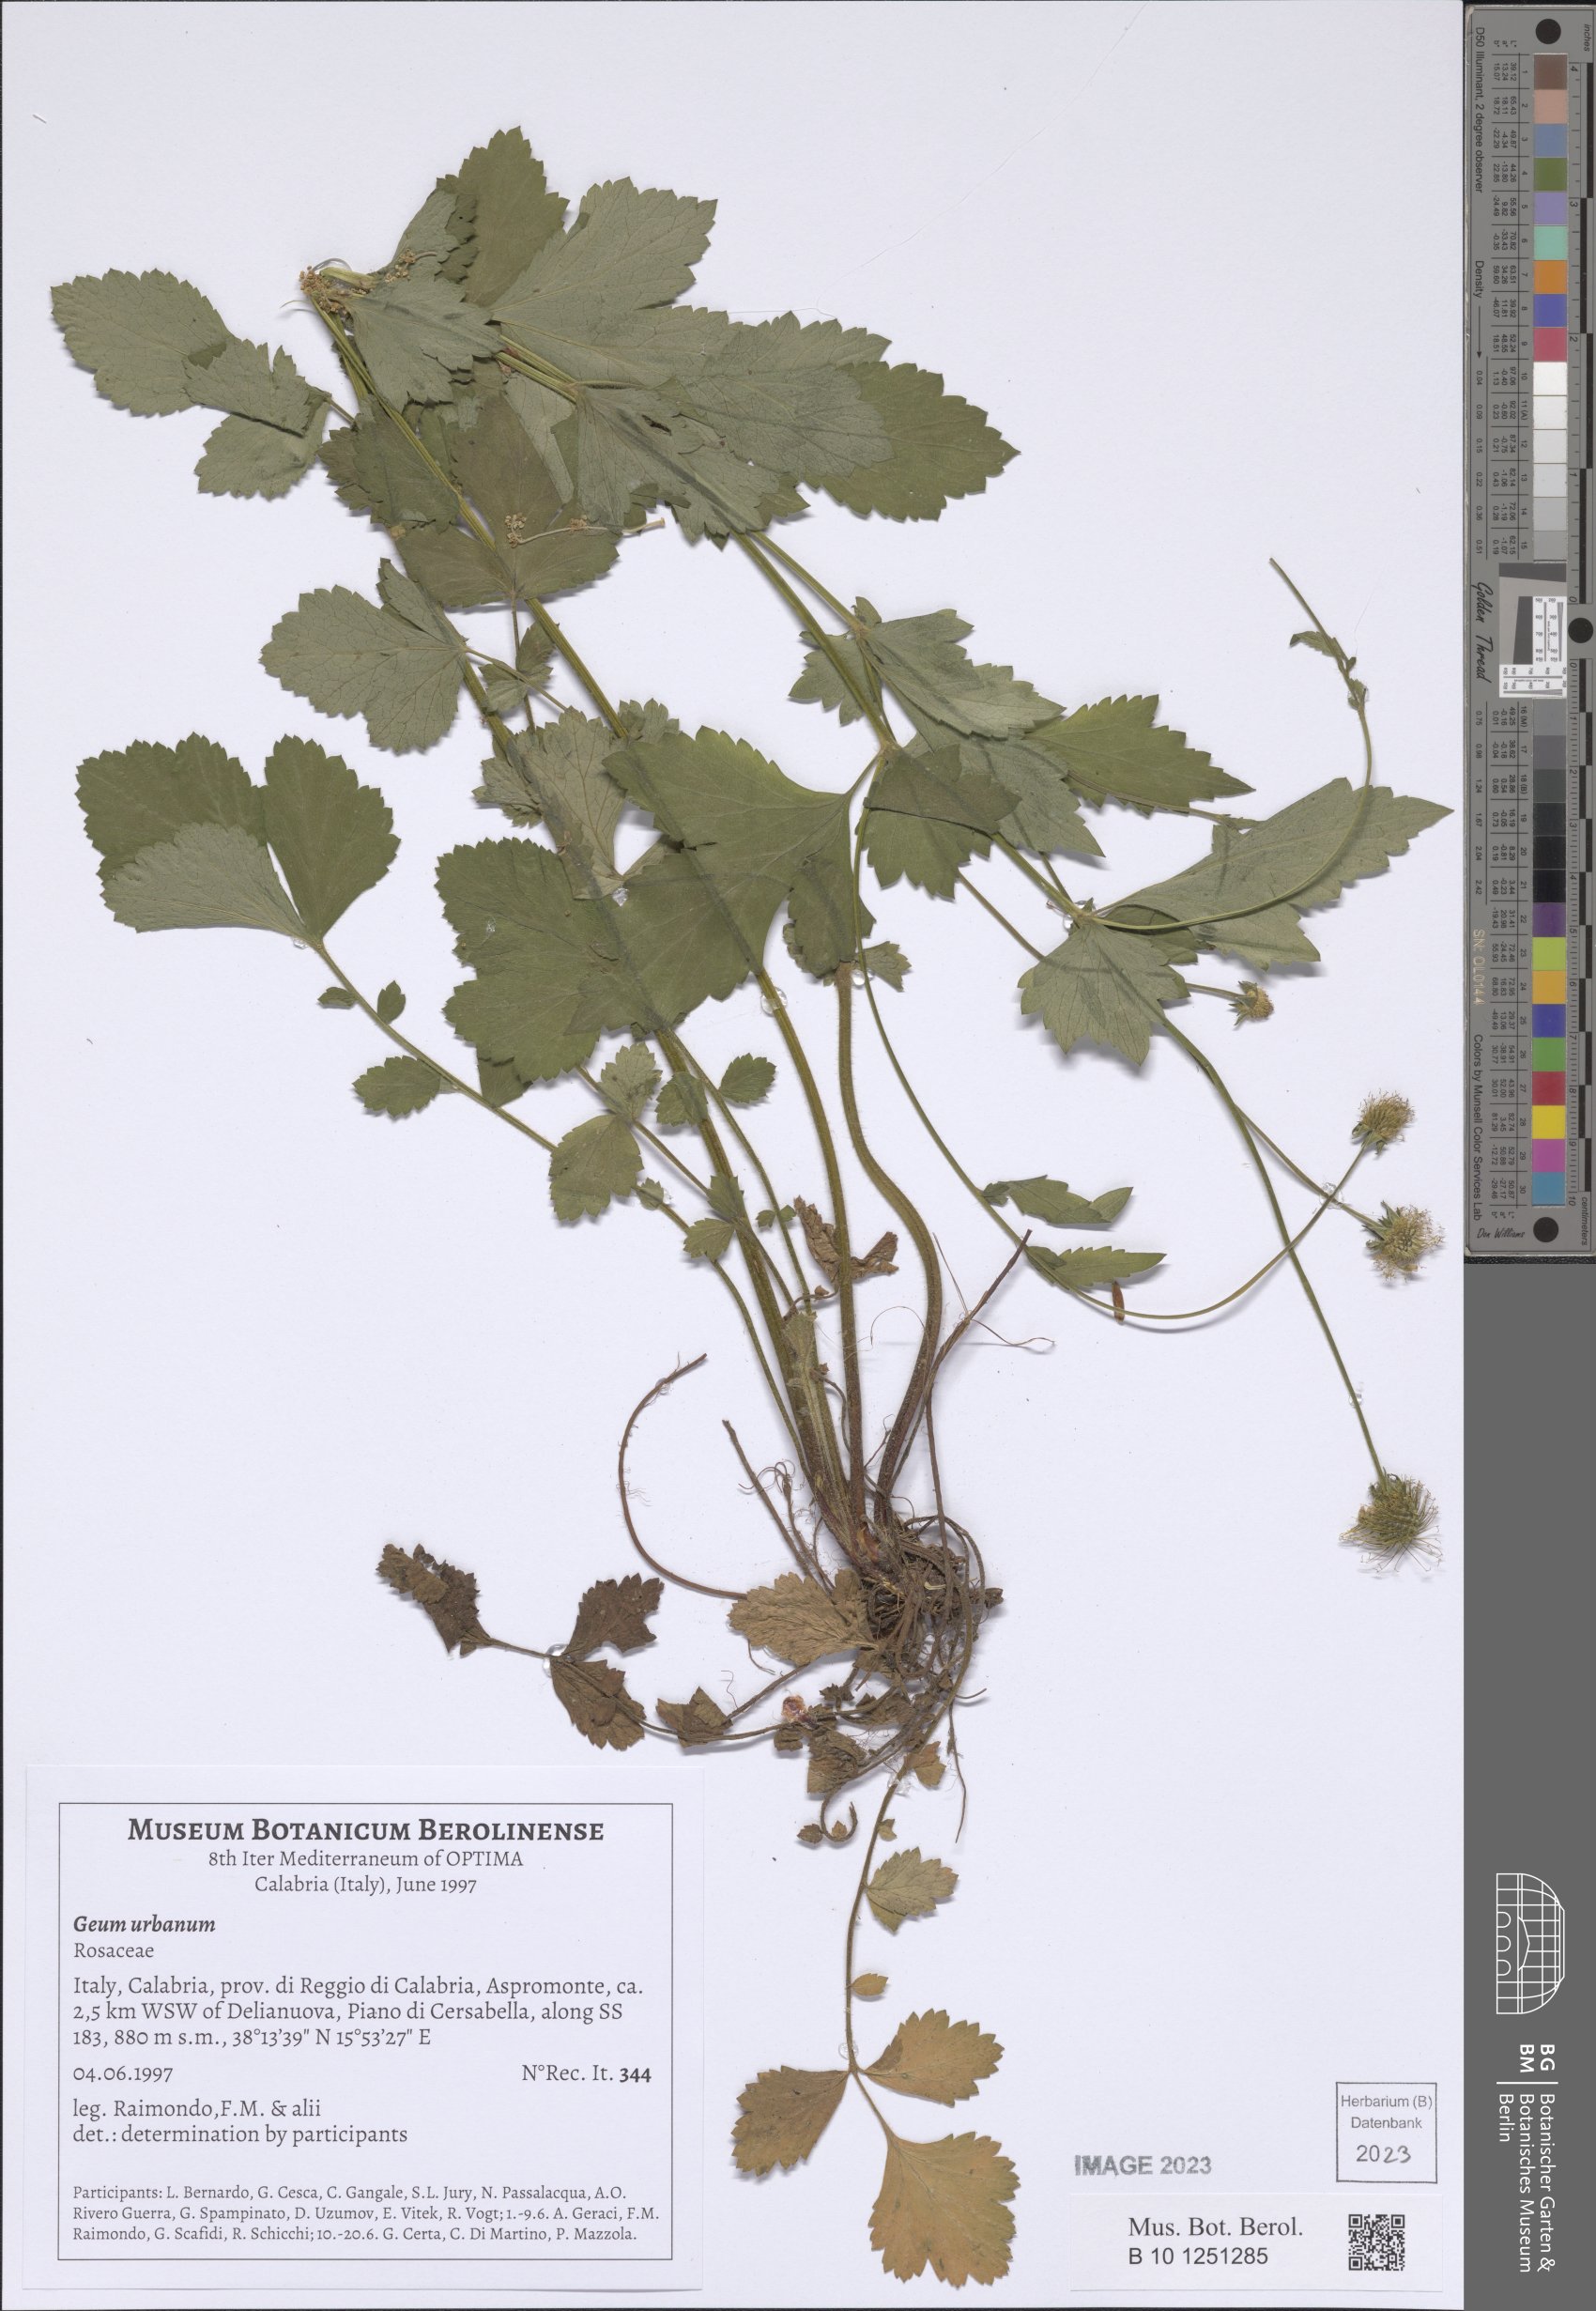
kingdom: Plantae
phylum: Tracheophyta
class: Magnoliopsida
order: Rosales
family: Rosaceae
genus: Geum
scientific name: Geum urbanum
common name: Wood avens
